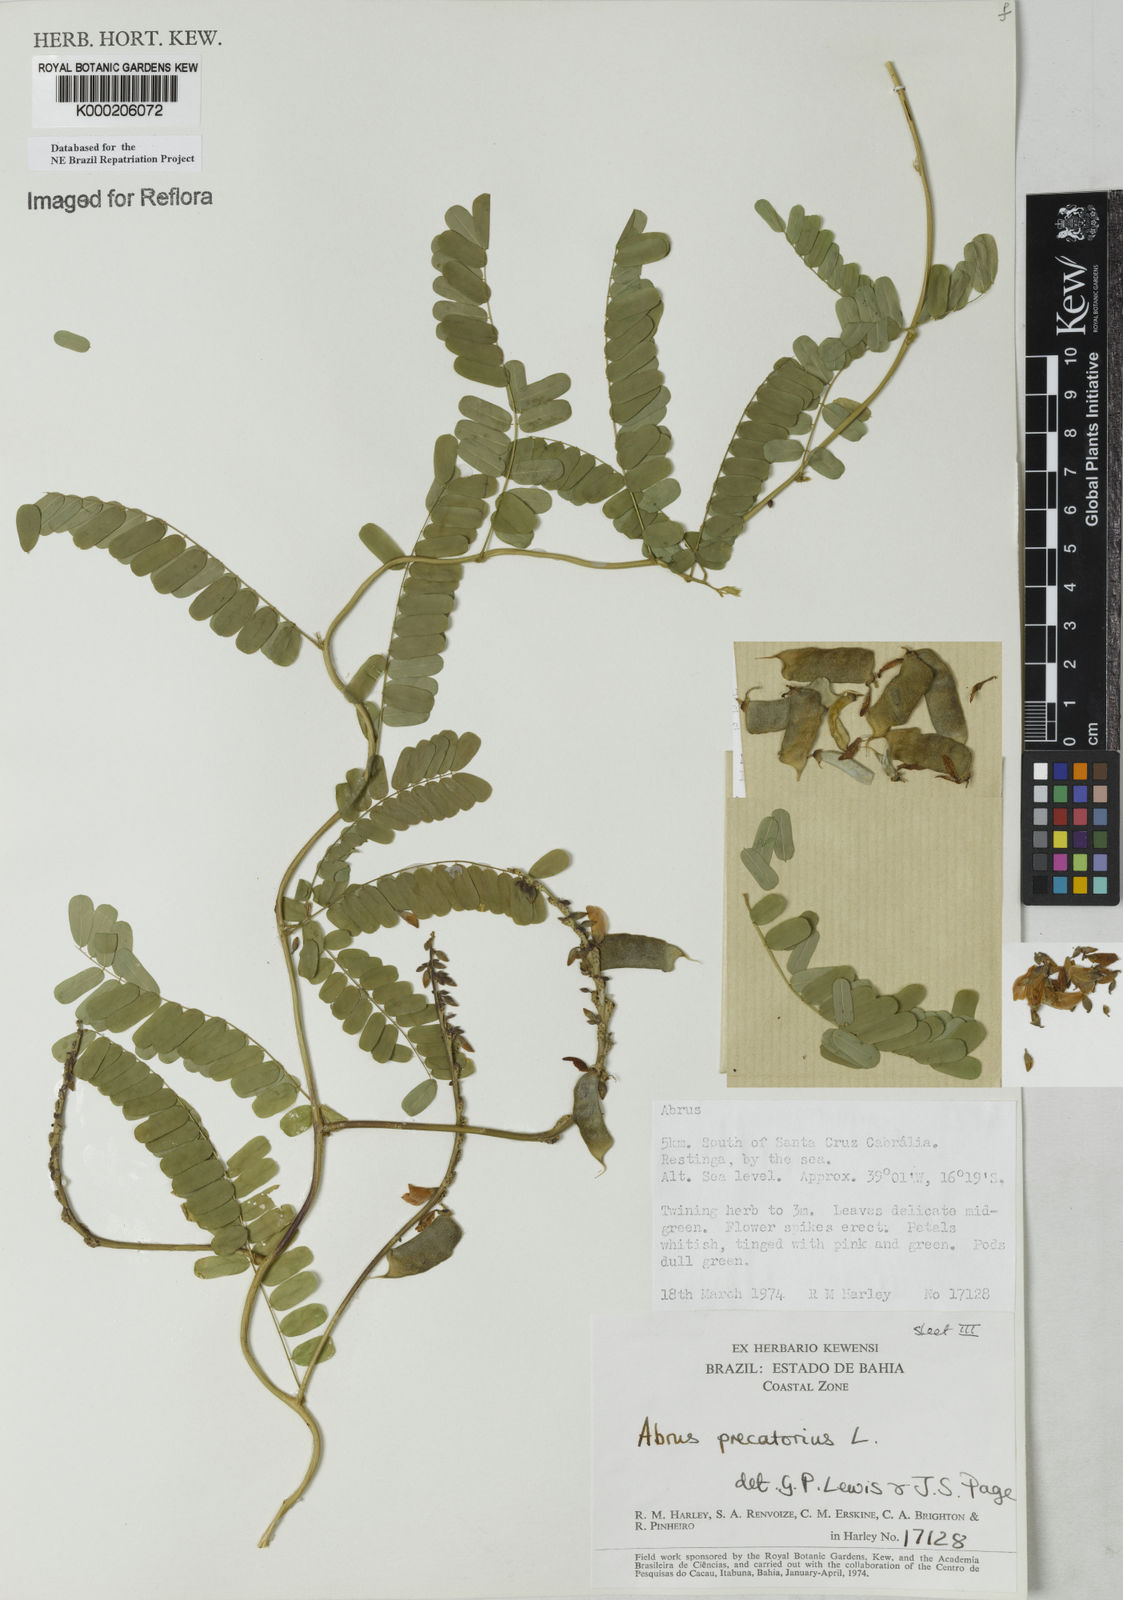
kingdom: Plantae
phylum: Tracheophyta
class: Magnoliopsida
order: Fabales
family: Fabaceae
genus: Abrus
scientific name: Abrus precatorius
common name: Rosarypea
